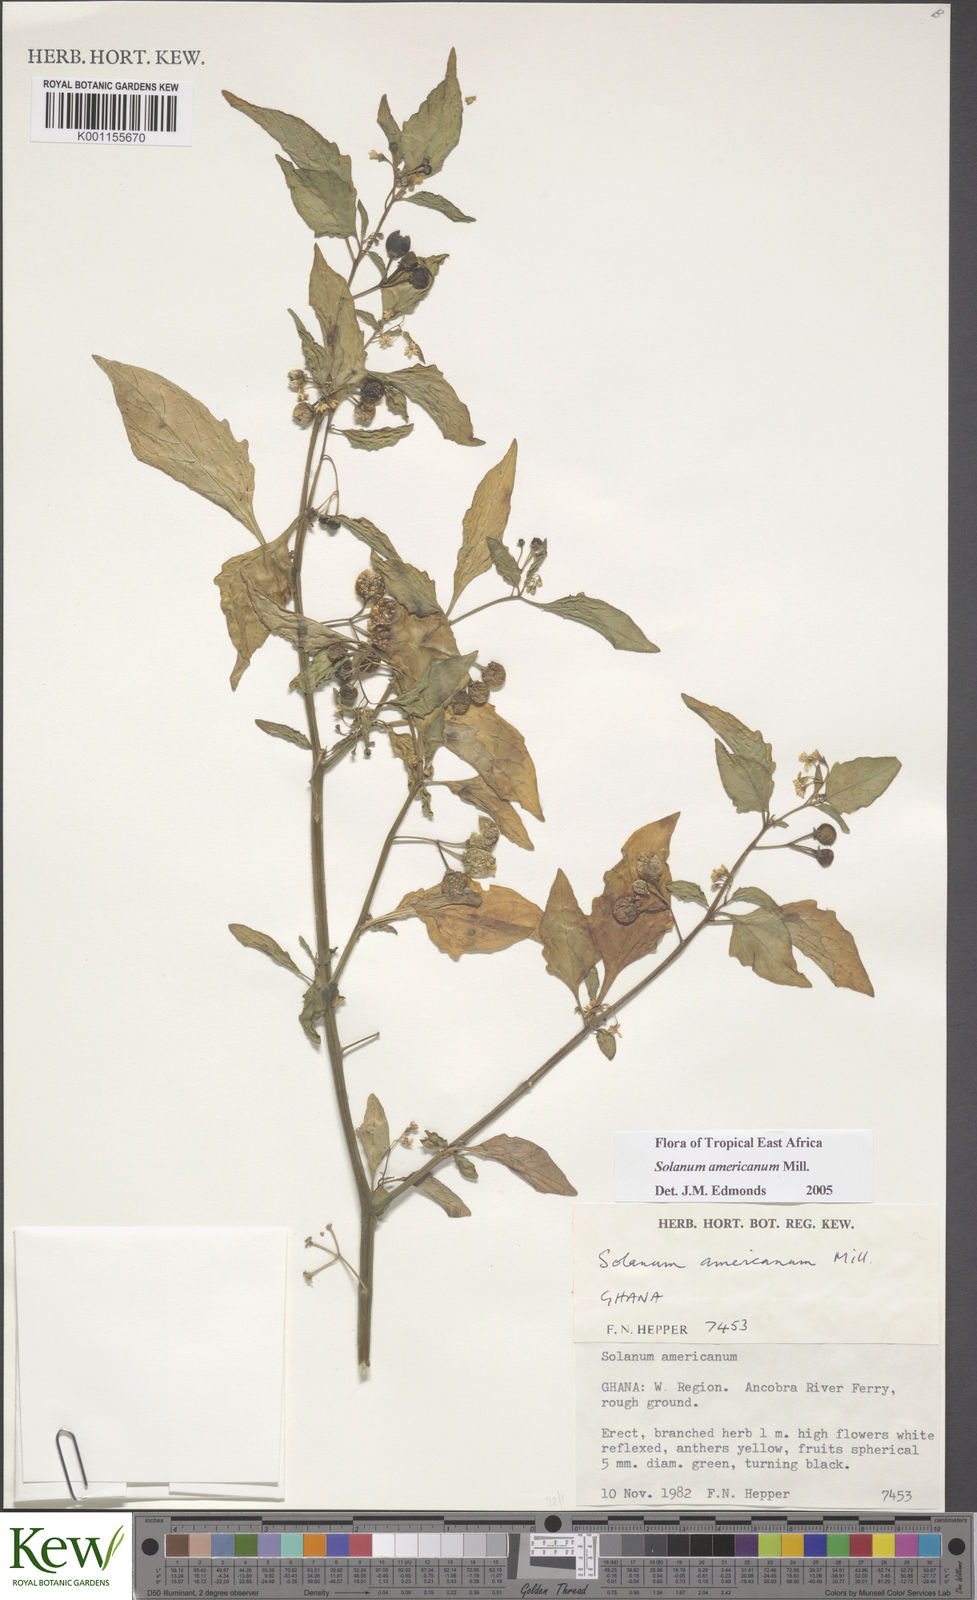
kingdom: Plantae
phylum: Tracheophyta
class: Magnoliopsida
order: Solanales
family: Solanaceae
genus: Solanum
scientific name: Solanum americanum
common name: American black nightshade
